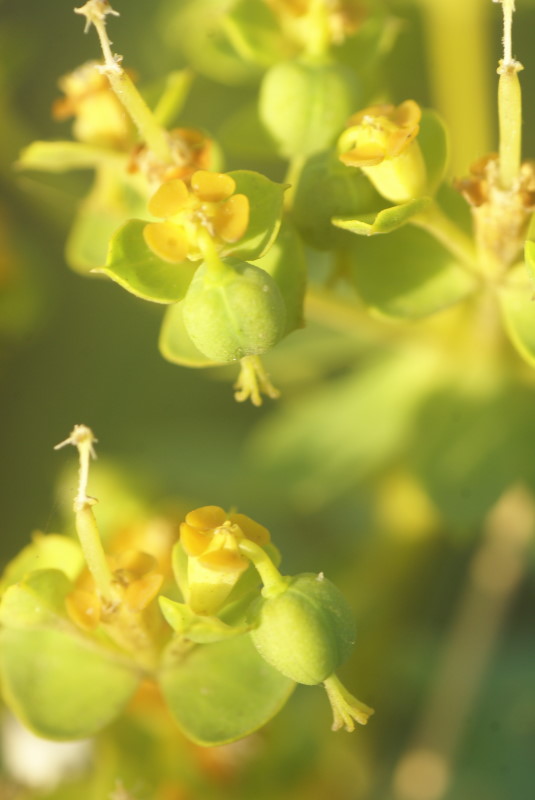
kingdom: Plantae
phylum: Tracheophyta
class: Magnoliopsida
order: Malpighiales
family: Euphorbiaceae
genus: Euphorbia
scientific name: Euphorbia stepposa
